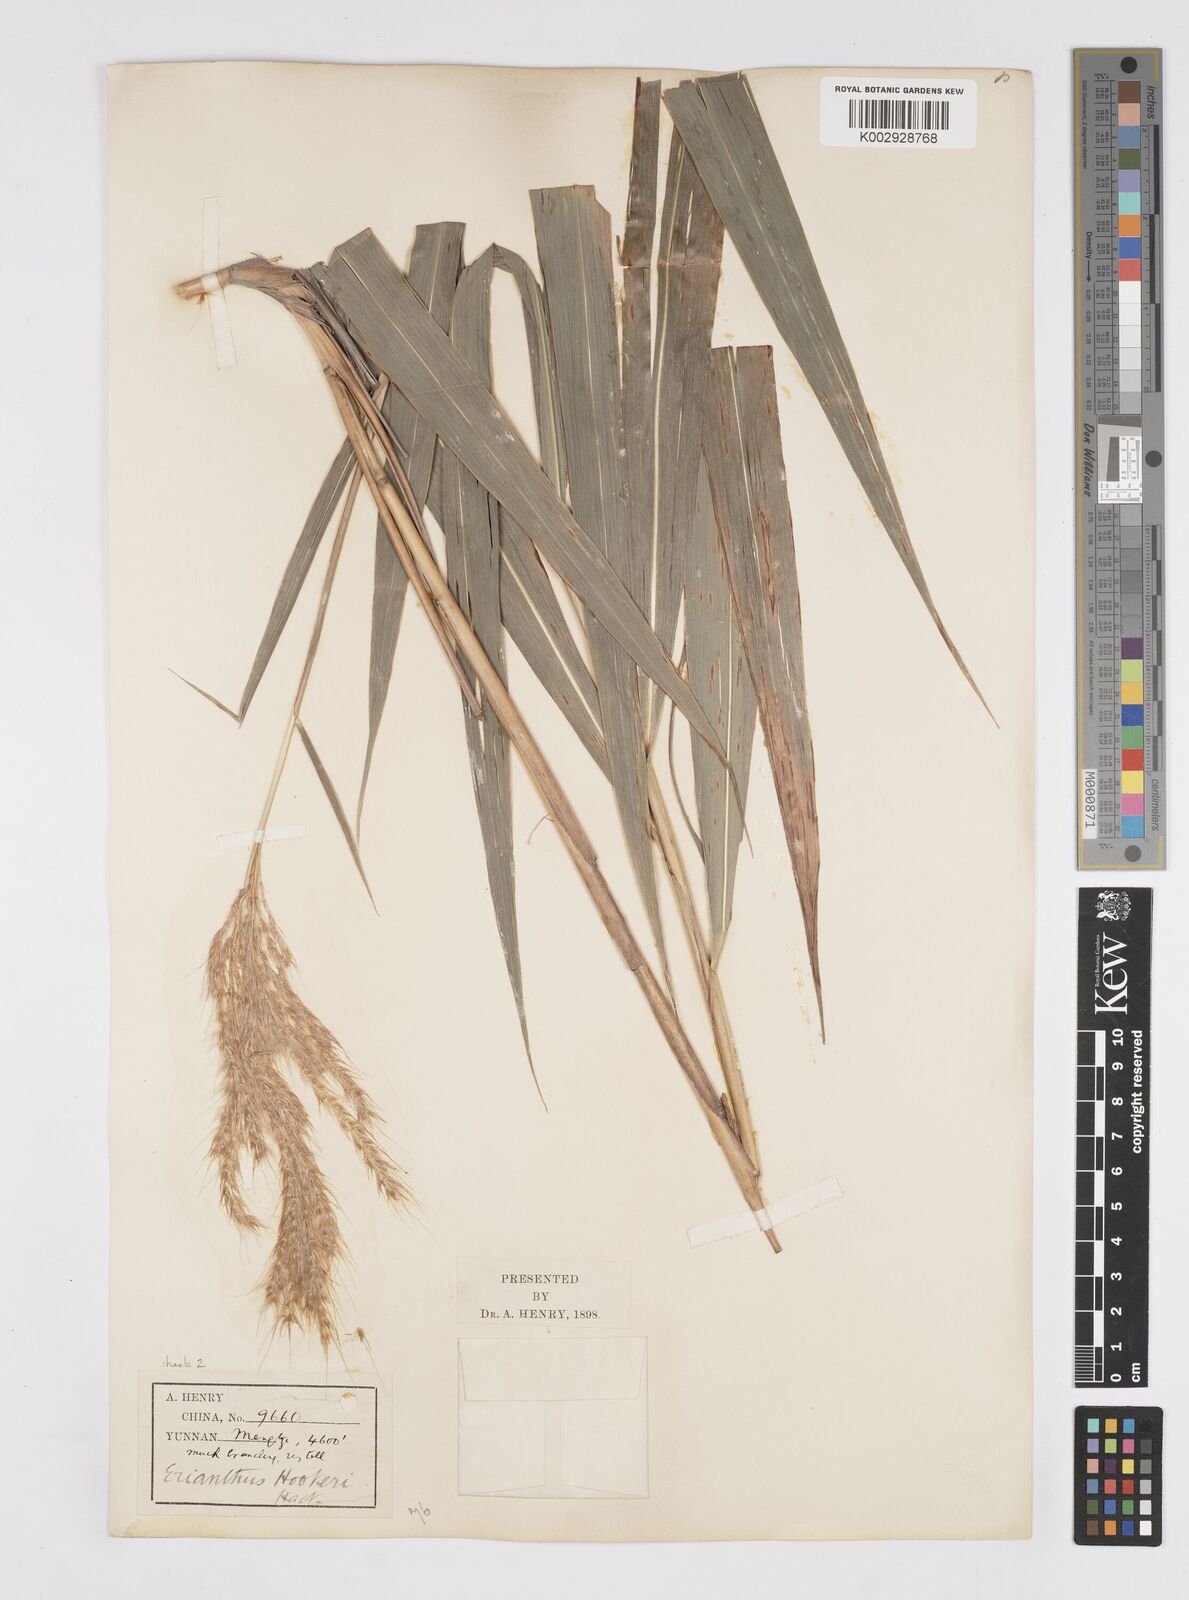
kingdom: Plantae
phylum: Tracheophyta
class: Liliopsida
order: Poales
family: Poaceae
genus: Melinis
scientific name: Melinis longiseta
